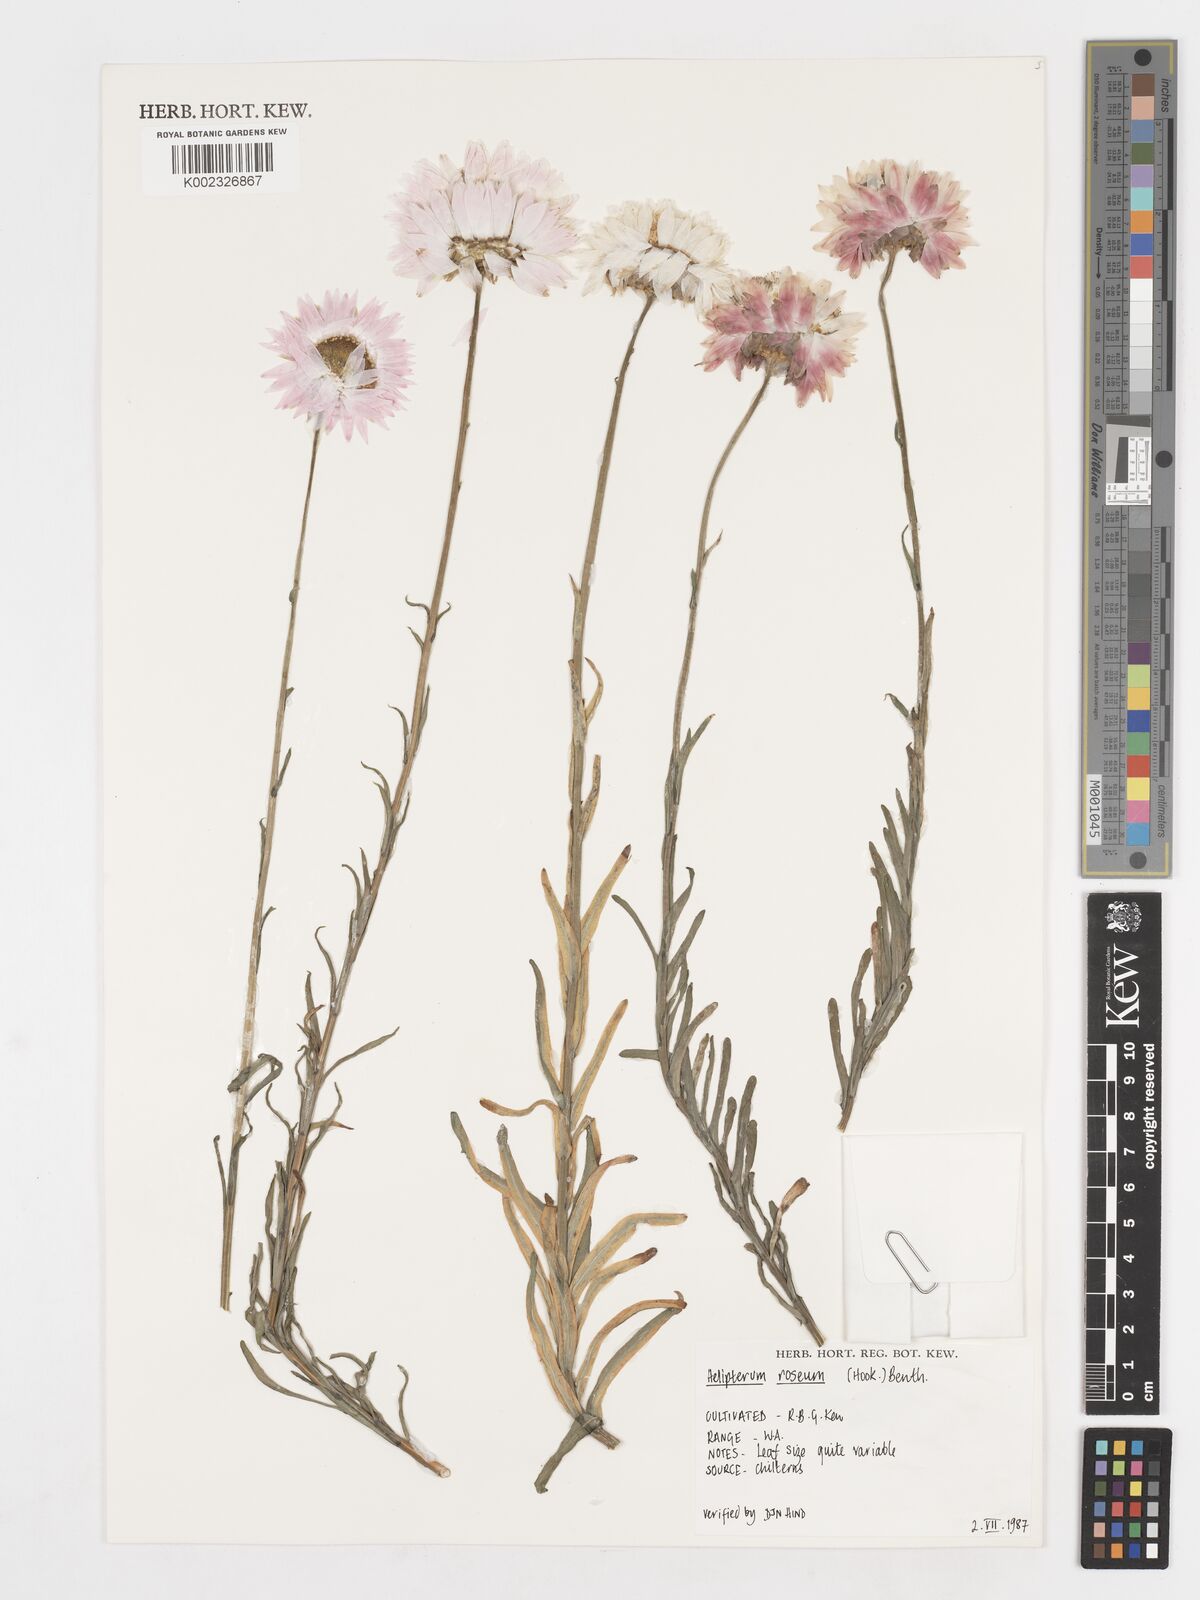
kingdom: Plantae
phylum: Tracheophyta
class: Magnoliopsida
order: Asterales
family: Asteraceae
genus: Syncarpha
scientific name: Syncarpha
